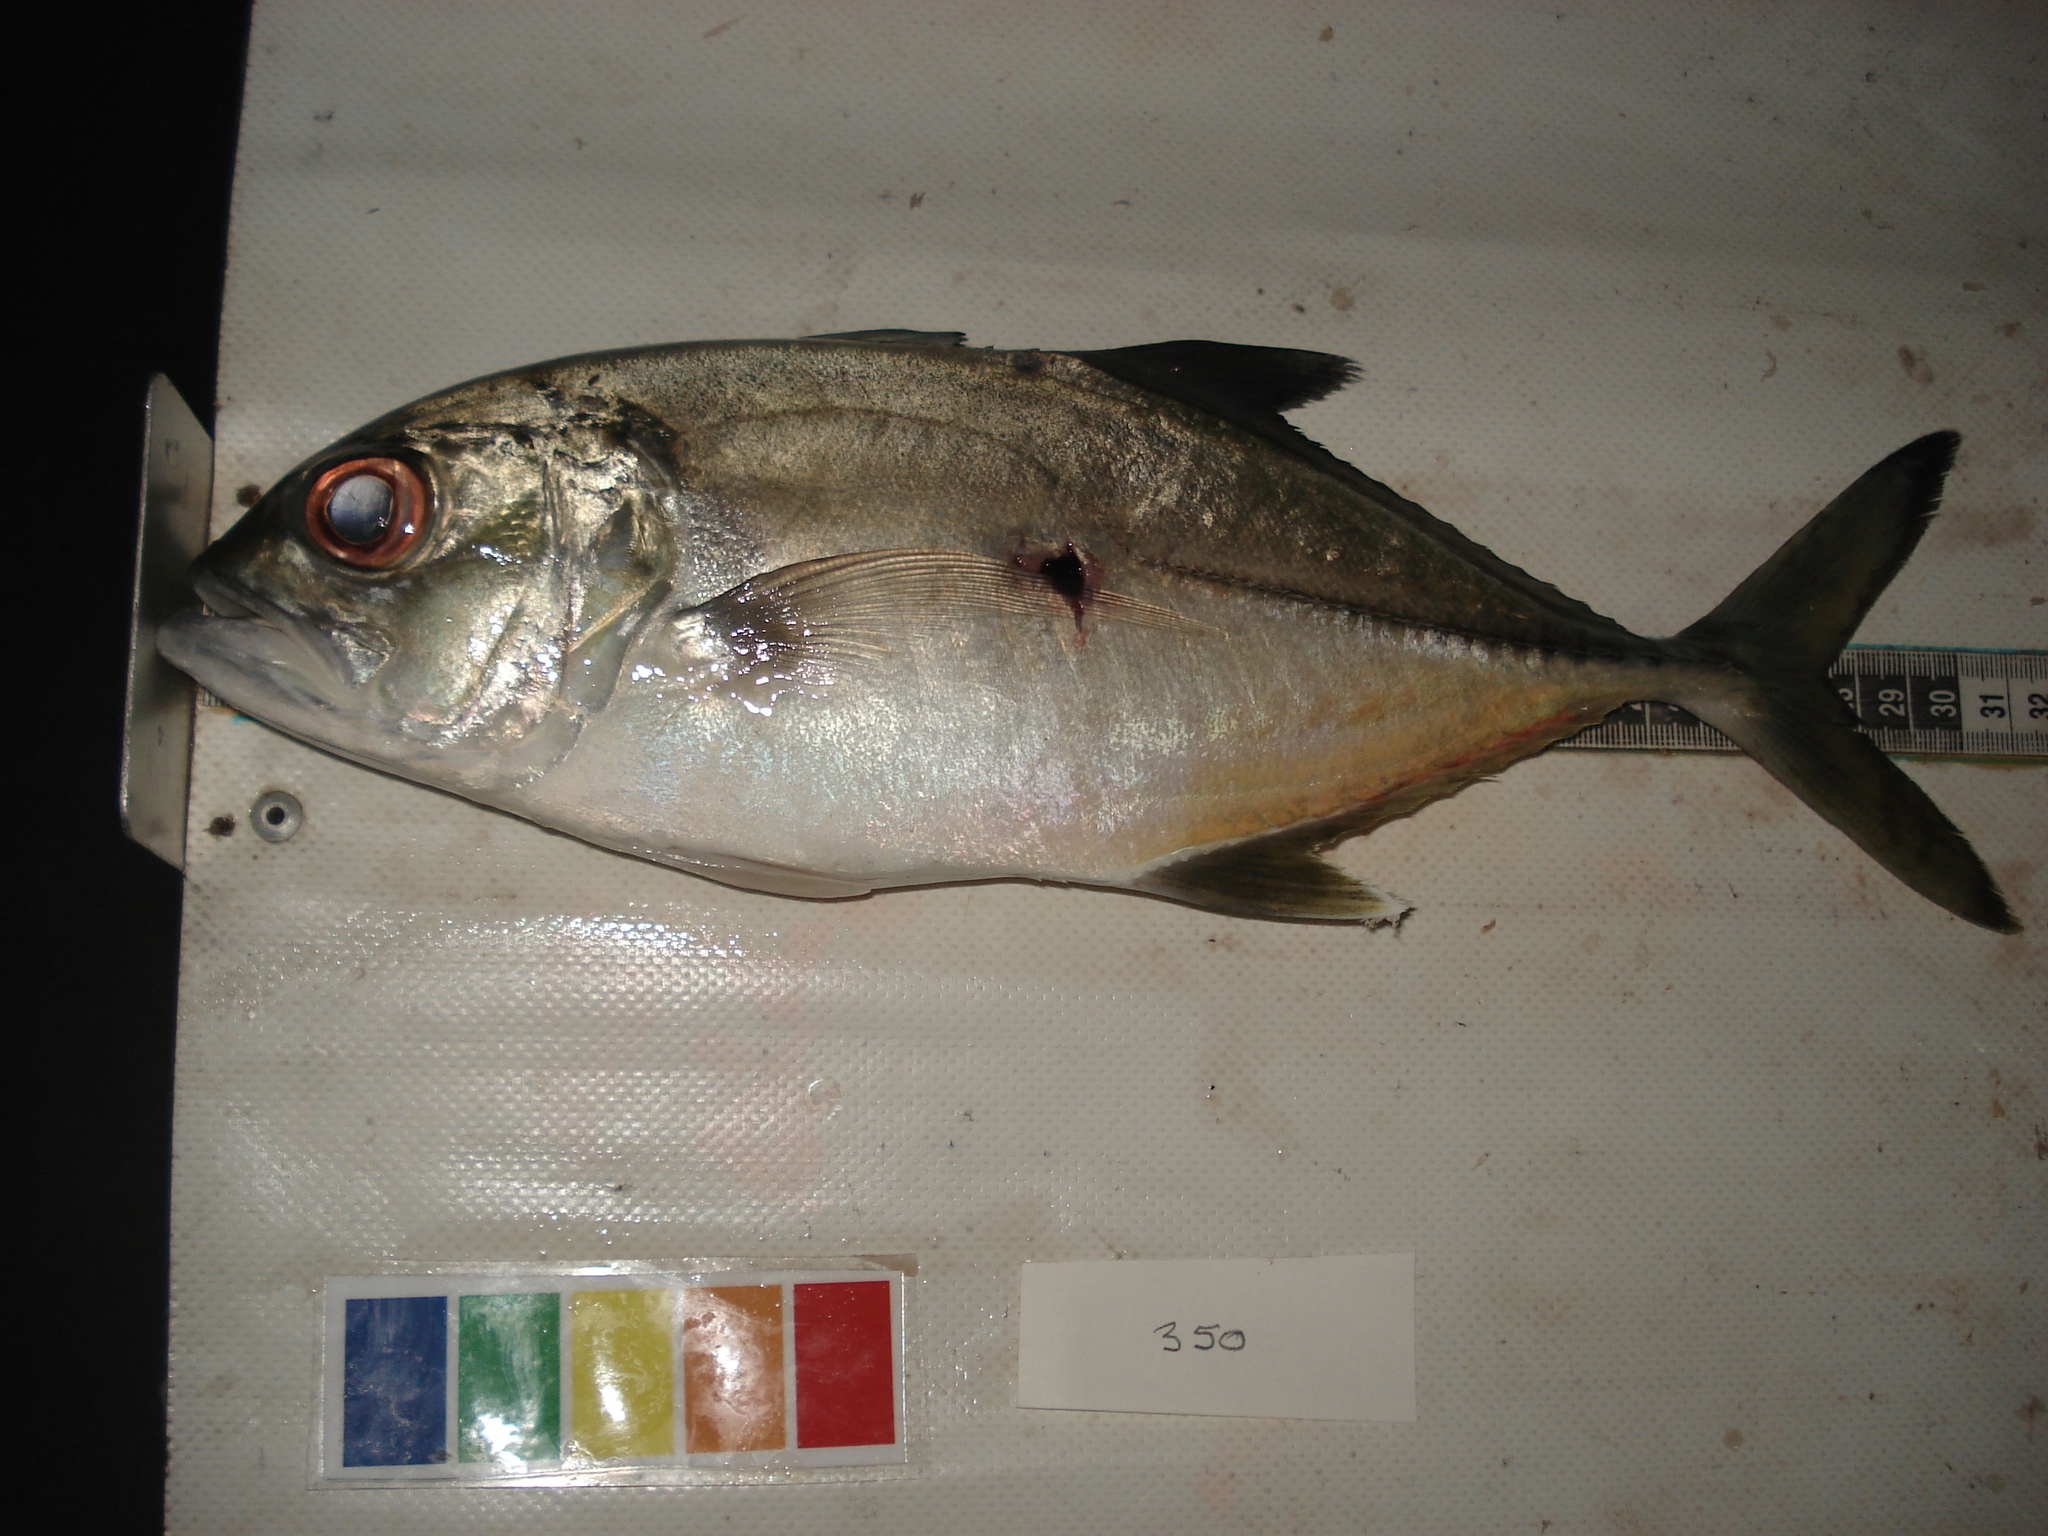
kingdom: Animalia
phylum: Chordata
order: Perciformes
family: Carangidae
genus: Caranx
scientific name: Caranx sexfasciatus
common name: Bigeye trevally
